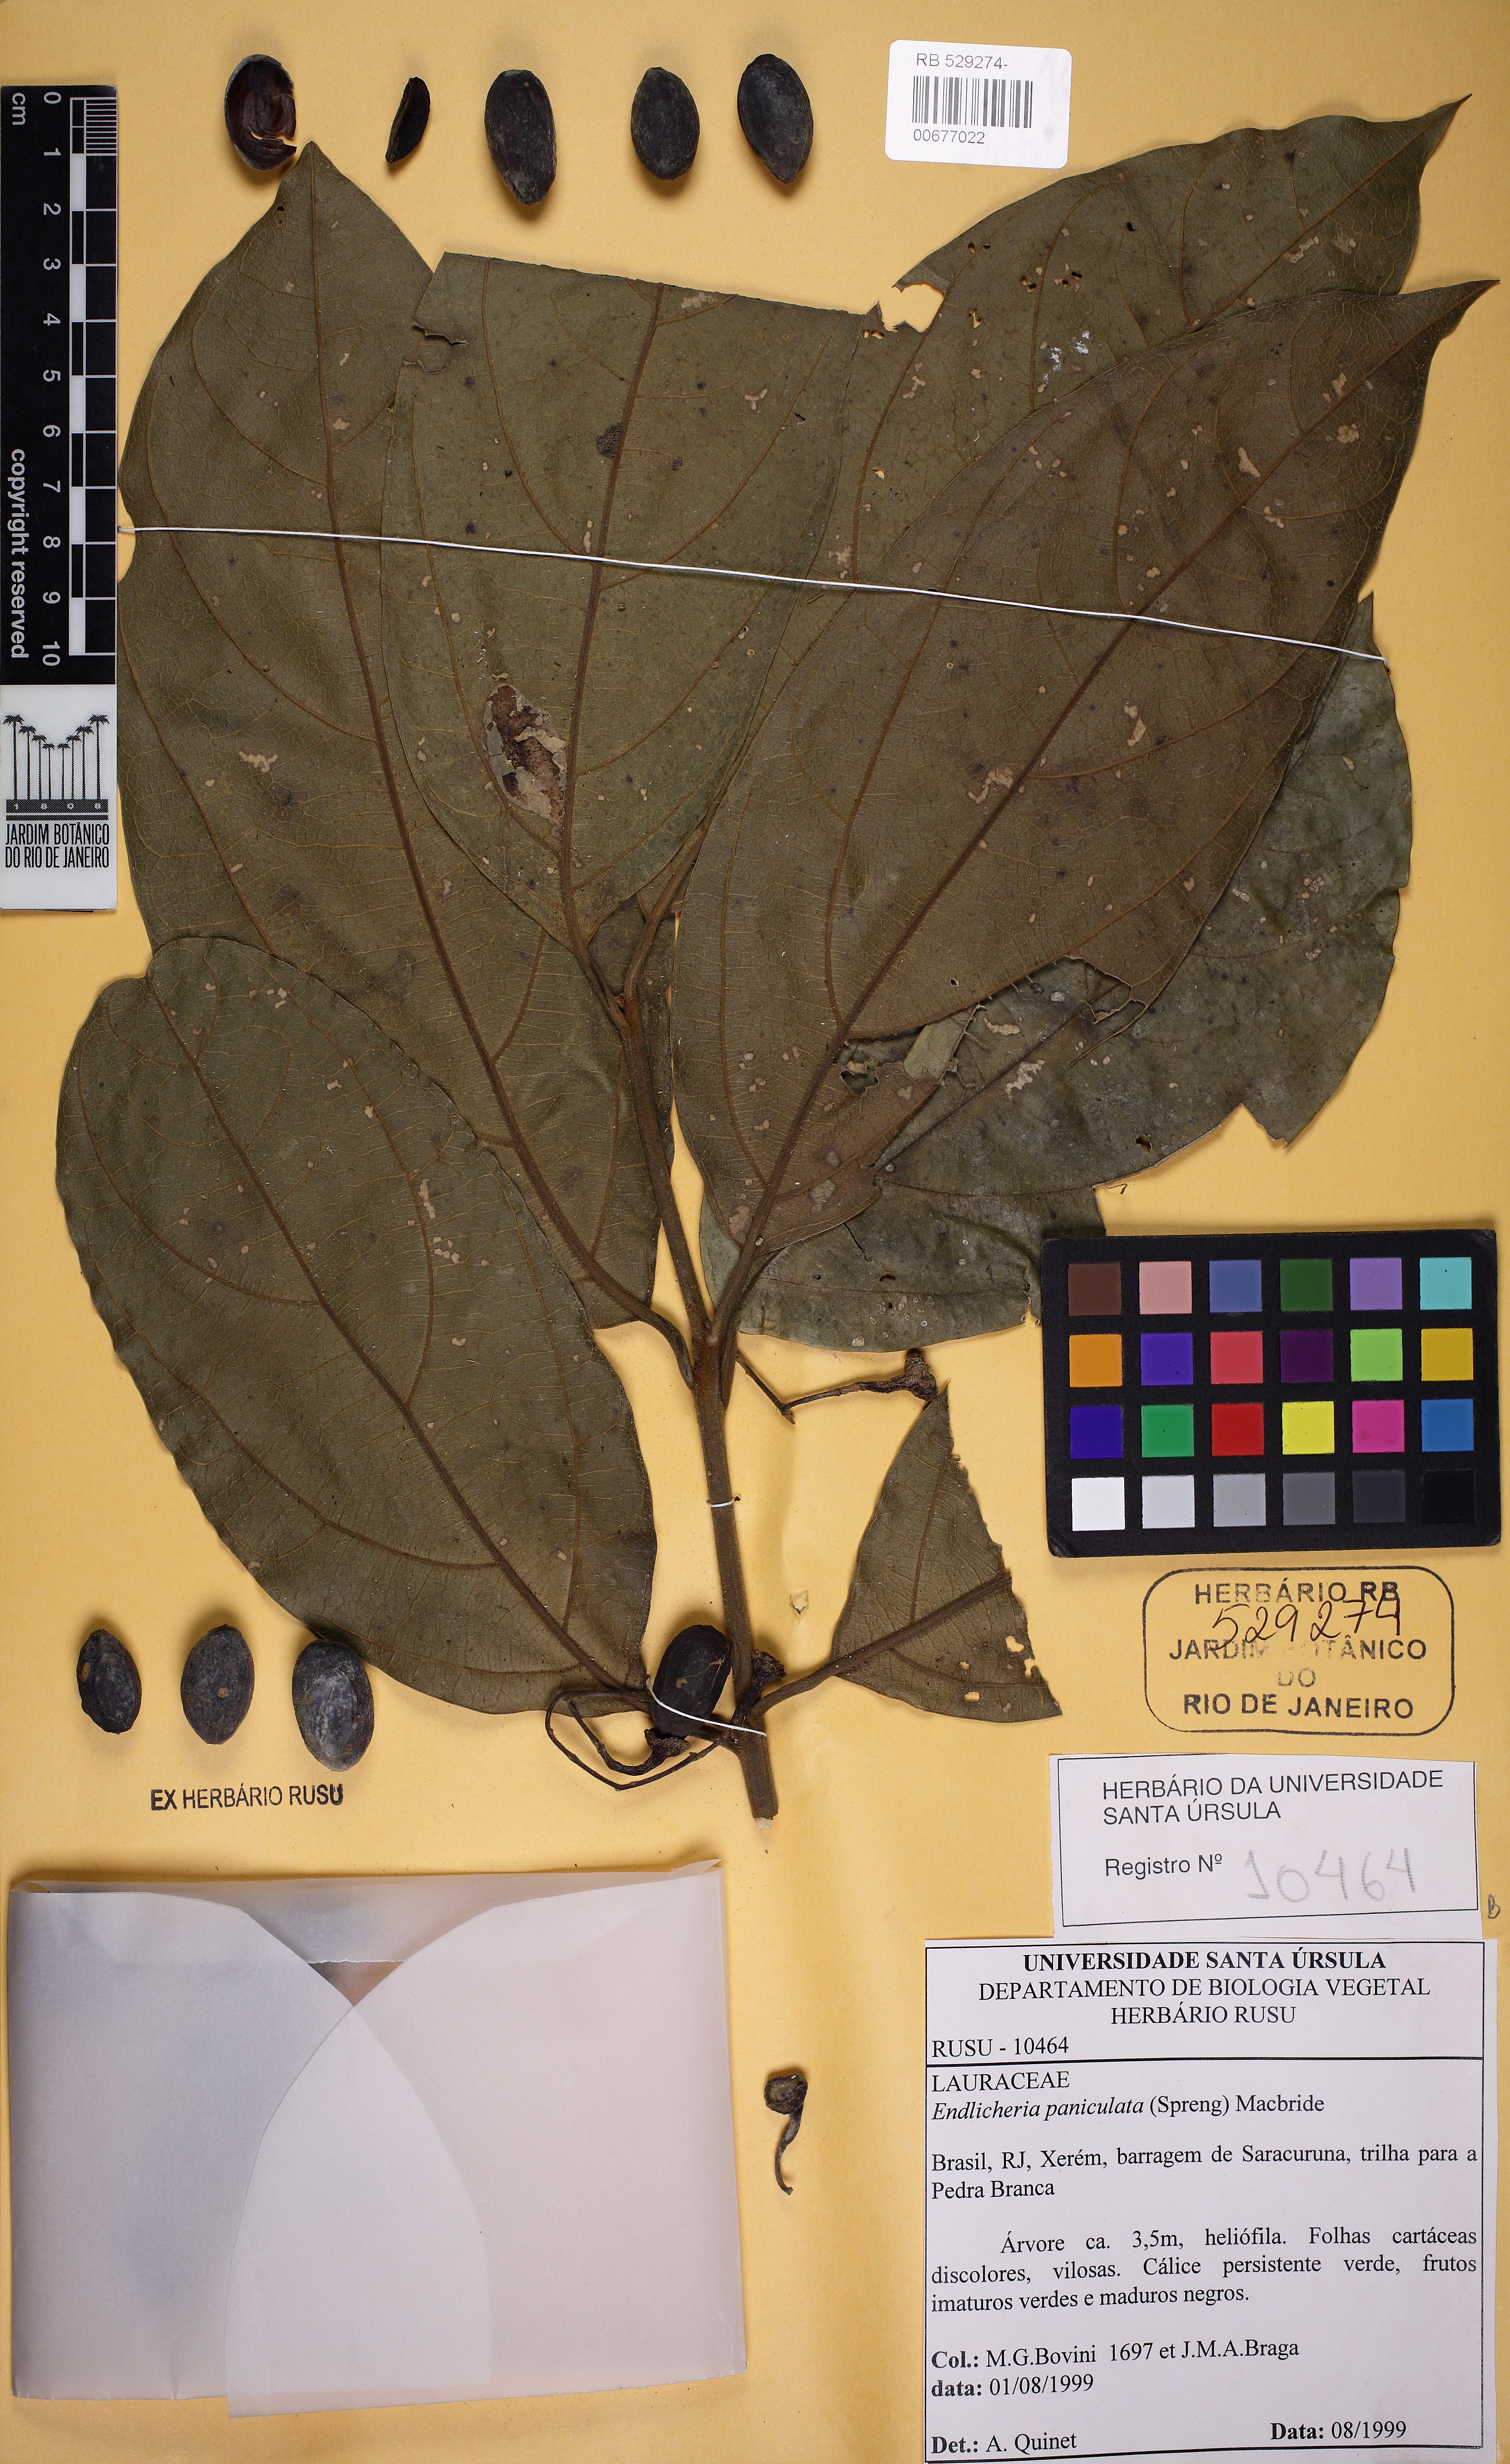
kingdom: Plantae
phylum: Tracheophyta
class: Magnoliopsida
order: Laurales
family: Lauraceae
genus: Endlicheria
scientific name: Endlicheria paniculata
